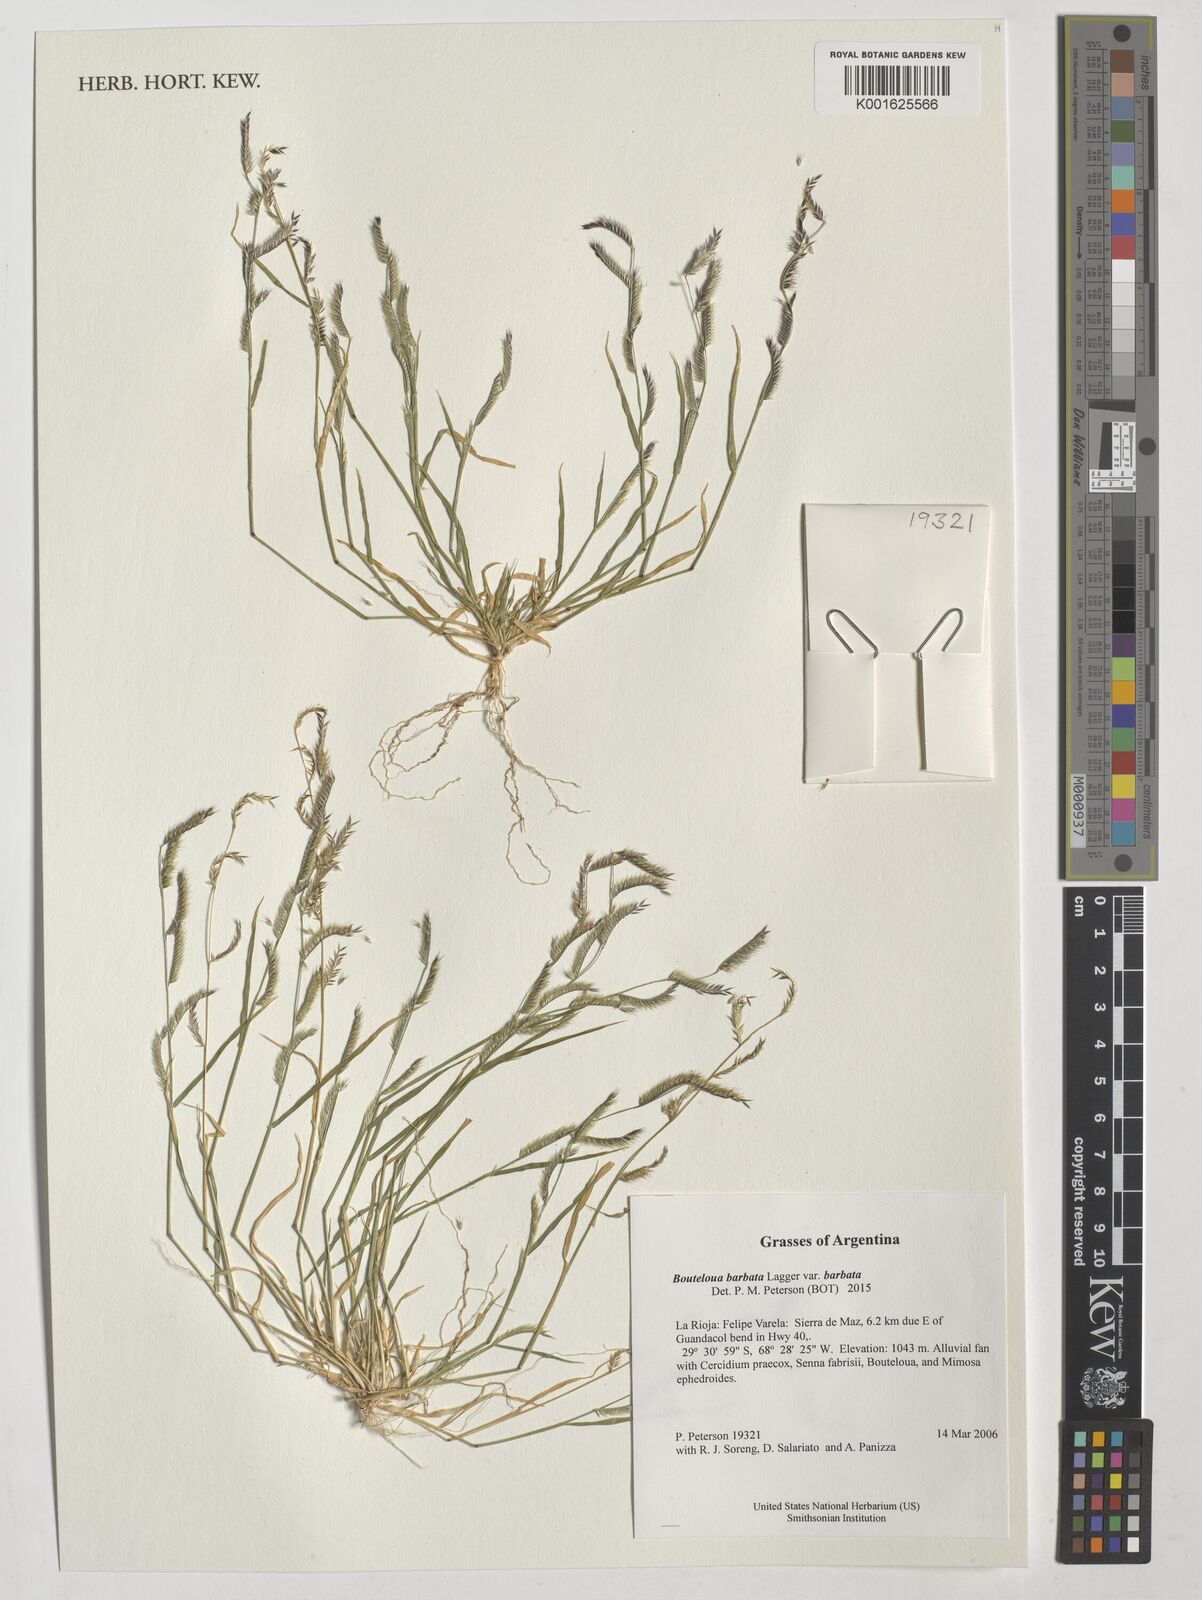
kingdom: Plantae
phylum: Tracheophyta
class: Liliopsida
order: Poales
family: Poaceae
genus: Bouteloua
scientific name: Bouteloua barbata
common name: Six-weeks grama
